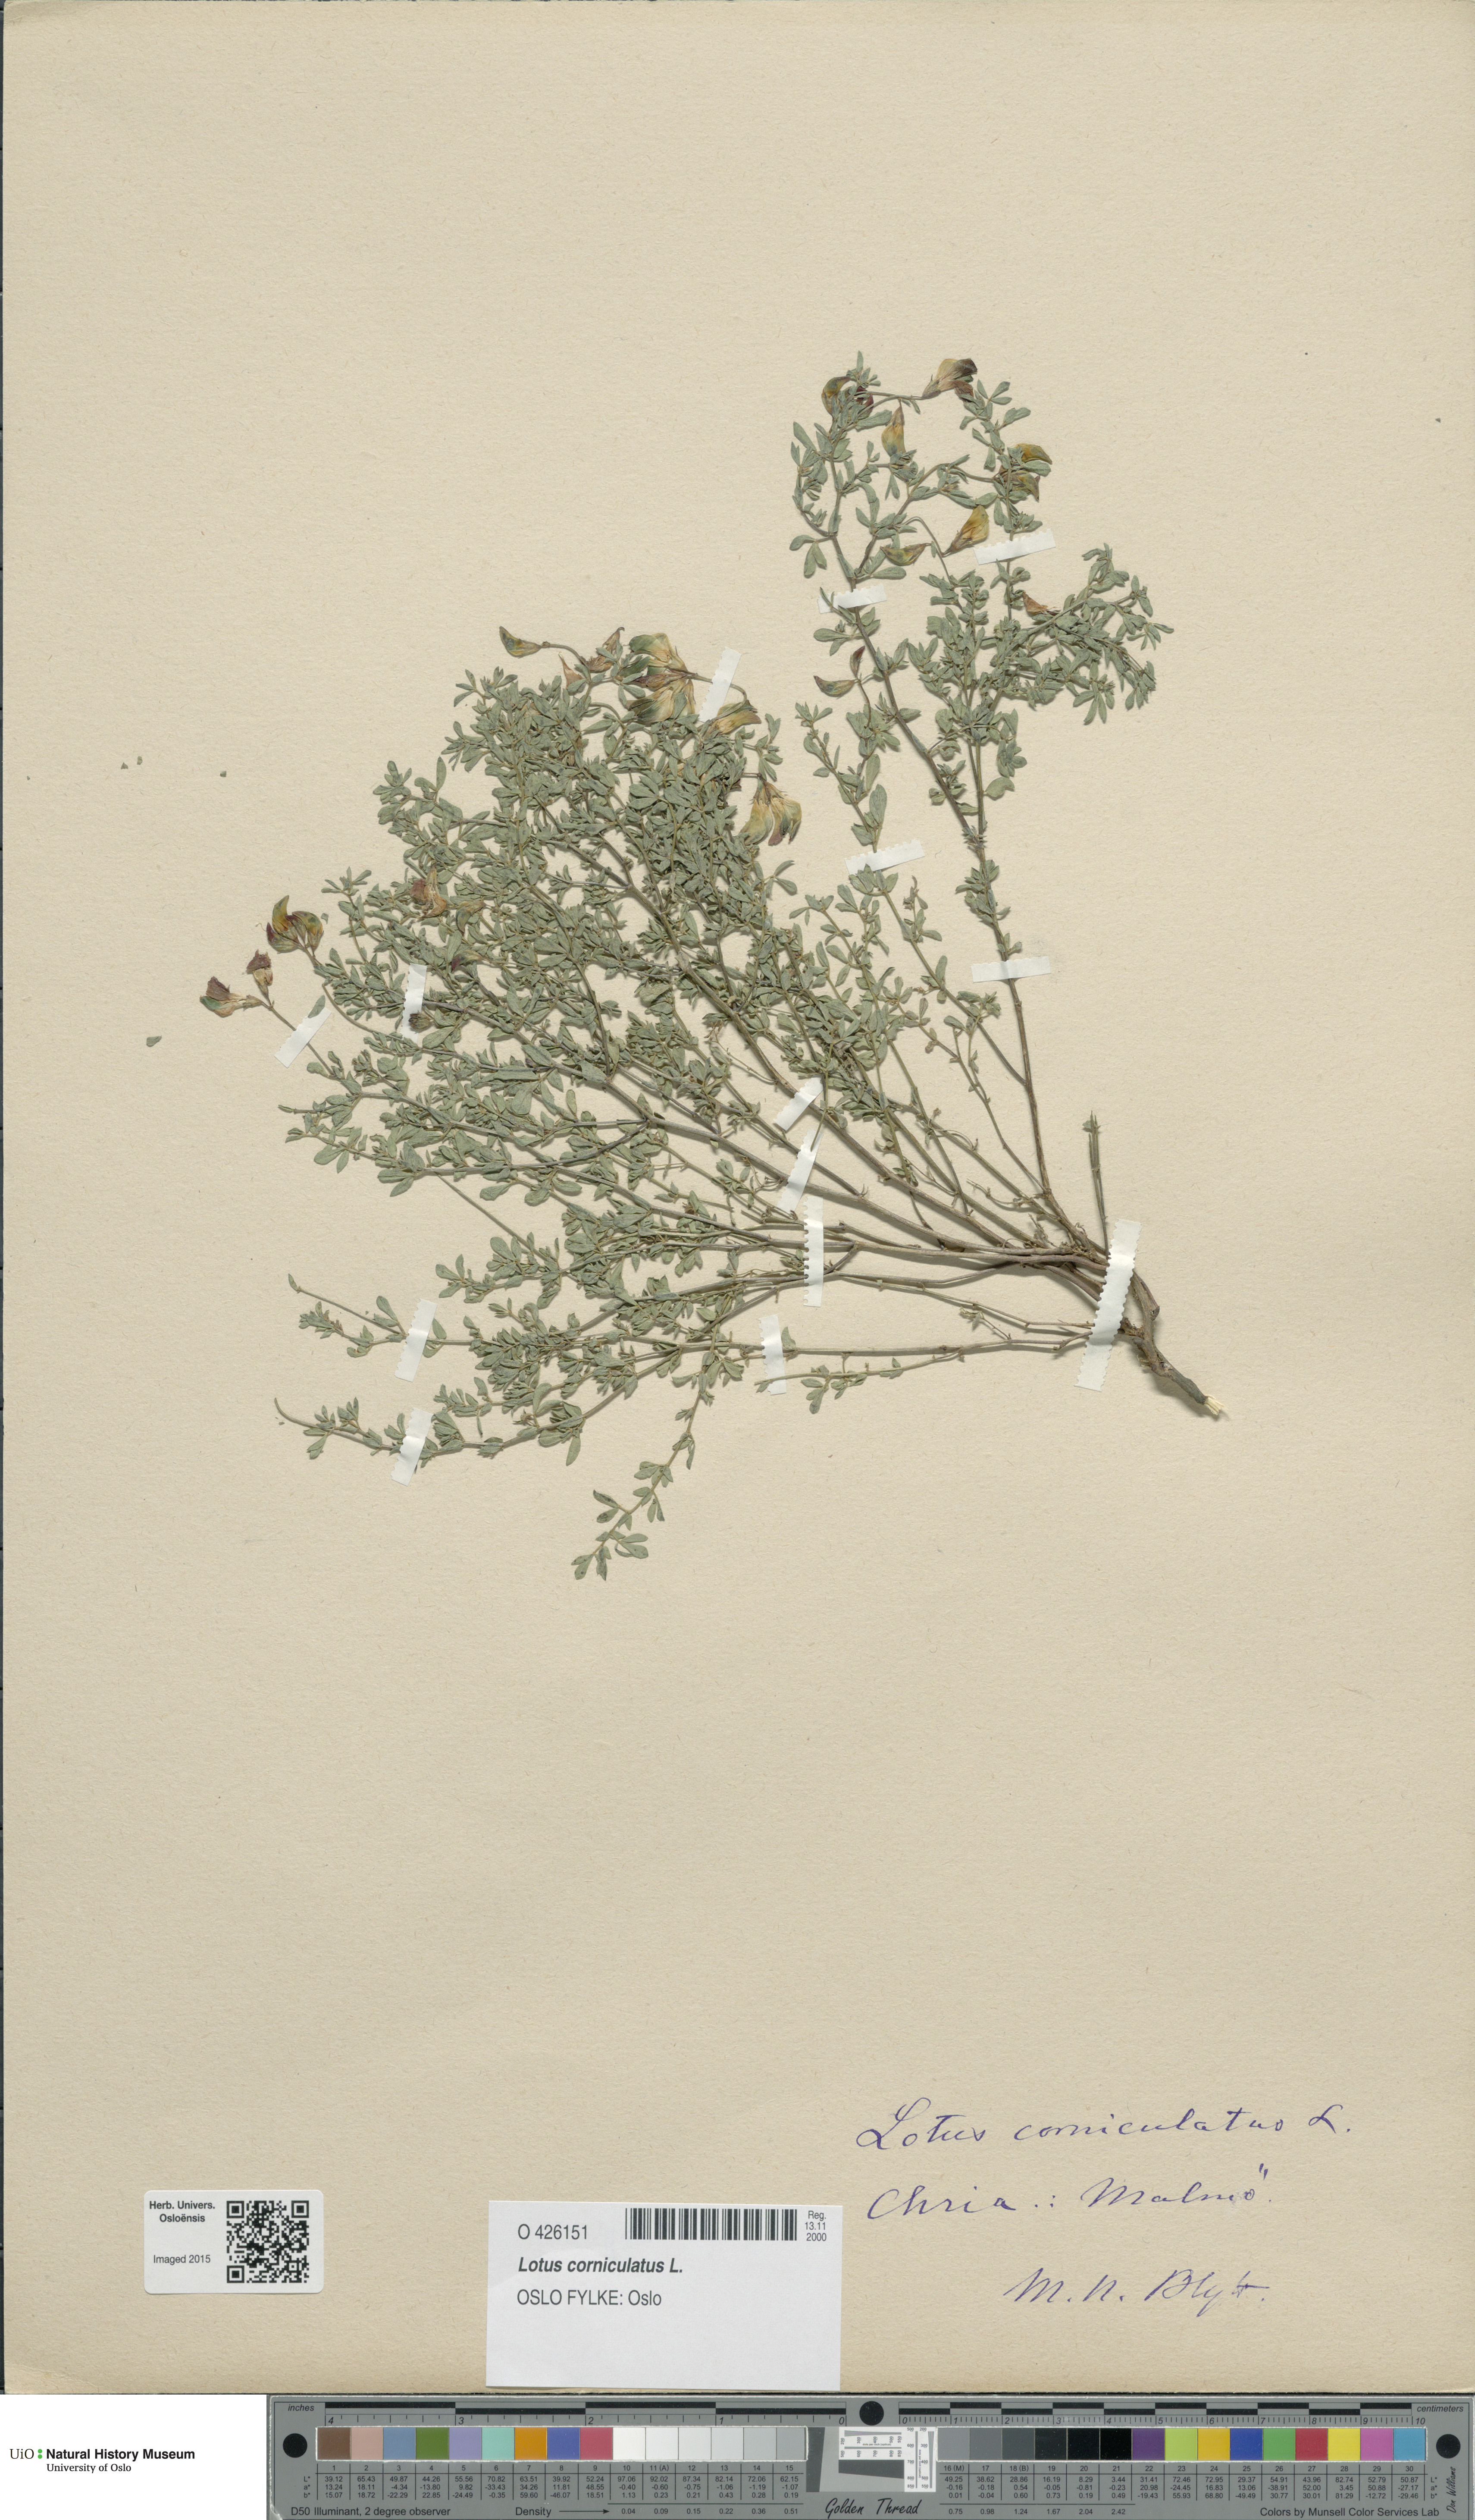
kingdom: Plantae
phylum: Tracheophyta
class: Magnoliopsida
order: Fabales
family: Fabaceae
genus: Lotus
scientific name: Lotus corniculatus
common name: Common bird's-foot-trefoil
